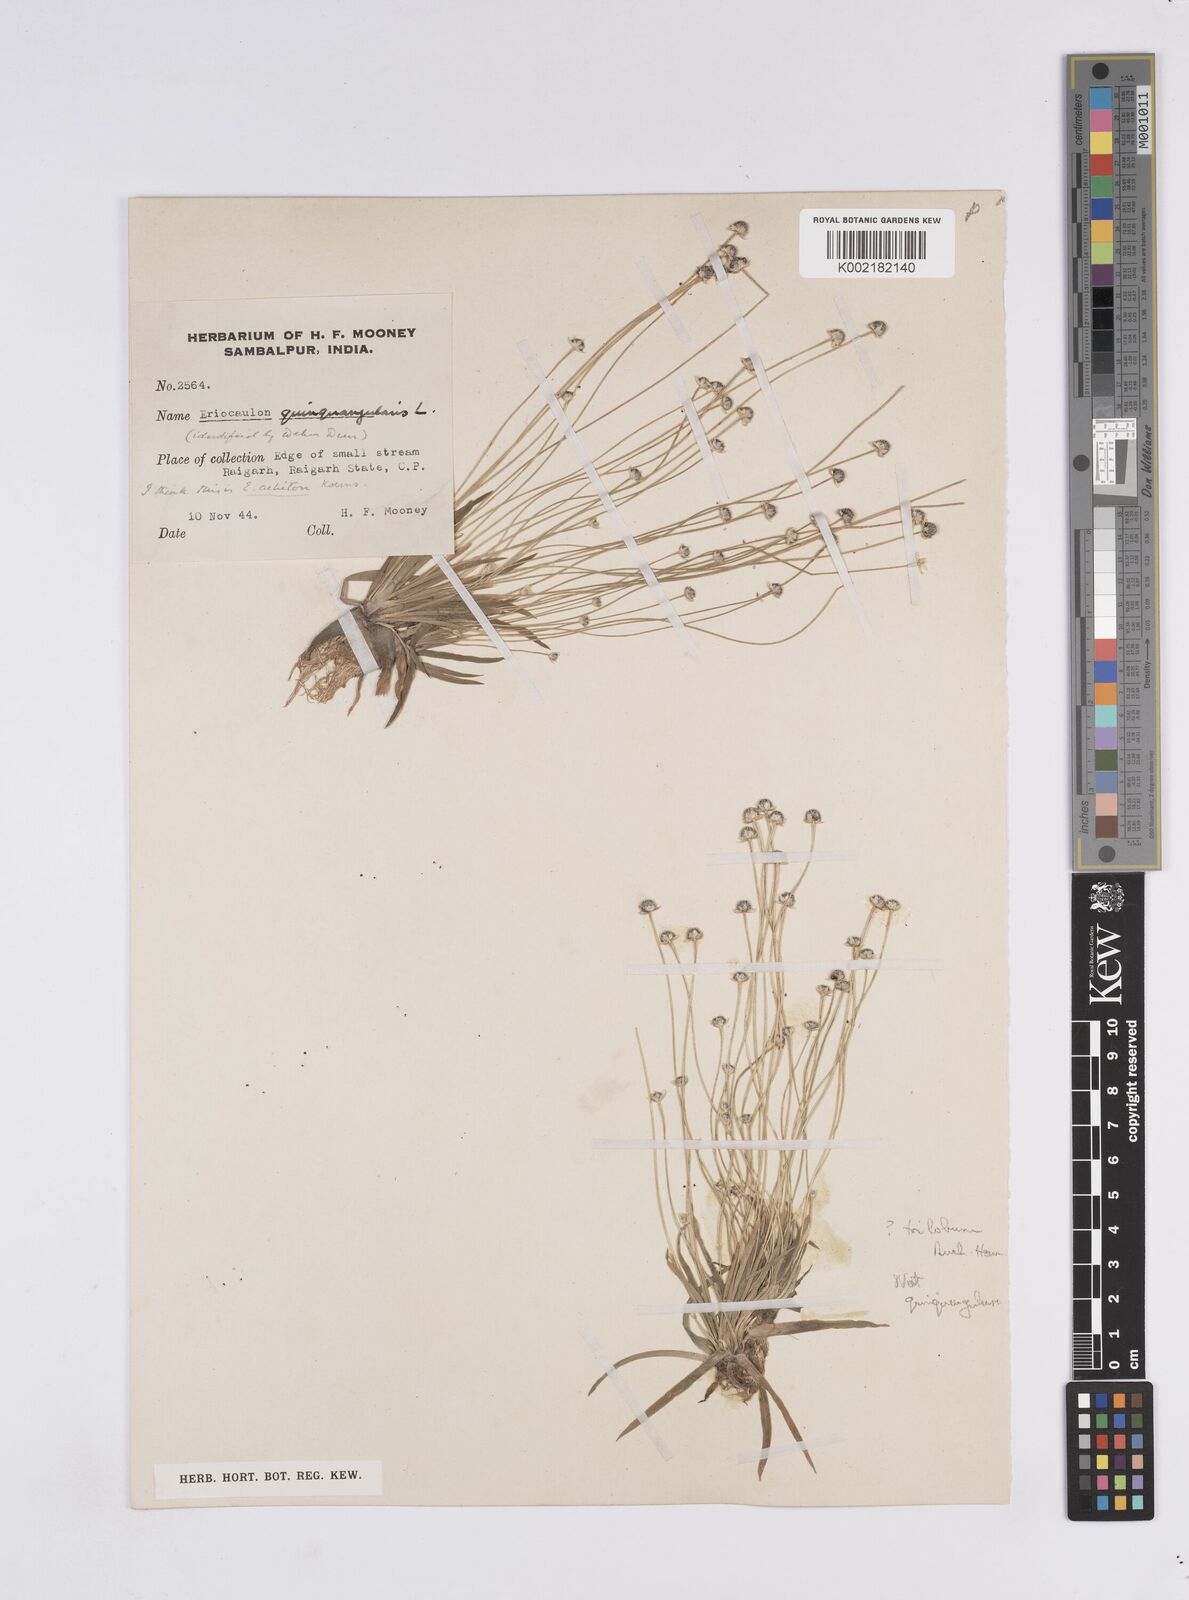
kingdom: Plantae
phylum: Tracheophyta
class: Liliopsida
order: Poales
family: Eriocaulaceae
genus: Eriocaulon
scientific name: Eriocaulon
